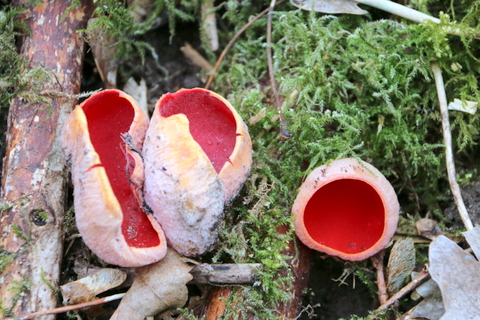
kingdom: Fungi
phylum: Ascomycota
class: Pezizomycetes
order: Pezizales
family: Sarcoscyphaceae
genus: Sarcoscypha
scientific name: Sarcoscypha austriaca
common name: krølhåret pragtbæger
